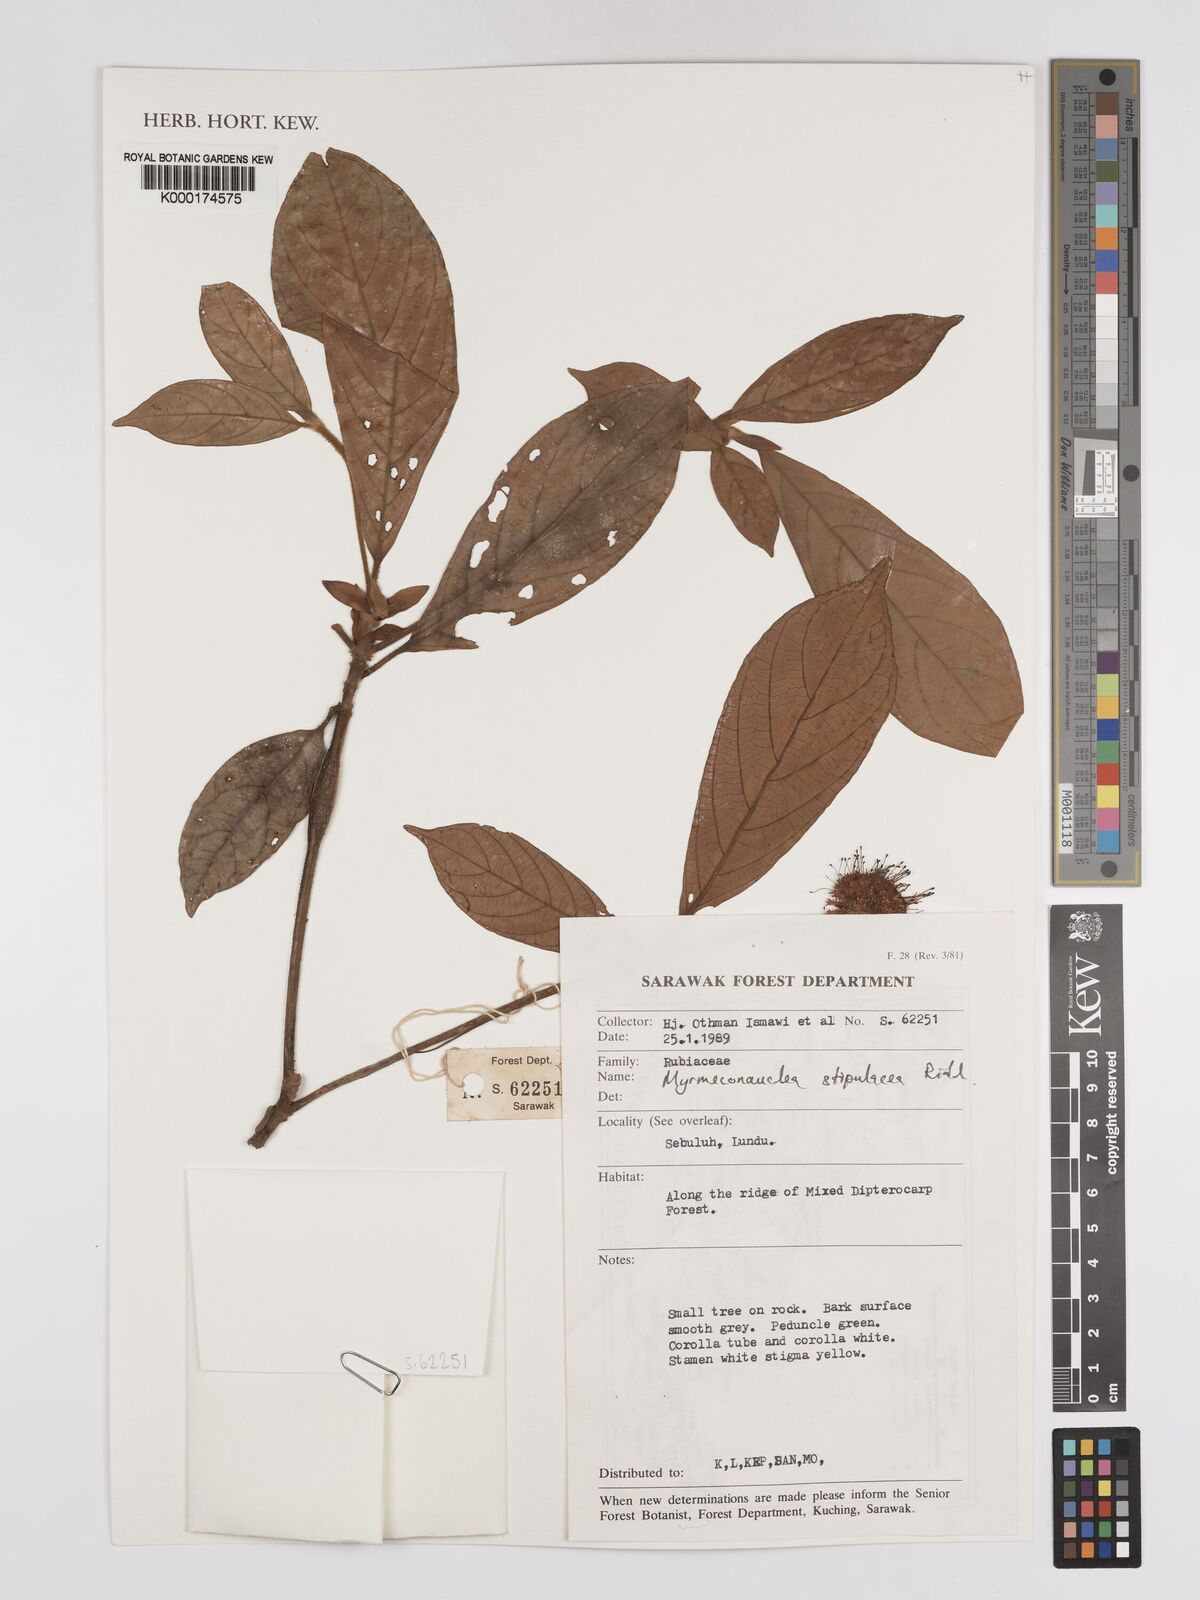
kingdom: Plantae
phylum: Tracheophyta
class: Magnoliopsida
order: Gentianales
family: Rubiaceae
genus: Myrmeconauclea
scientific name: Myrmeconauclea stipulacea
